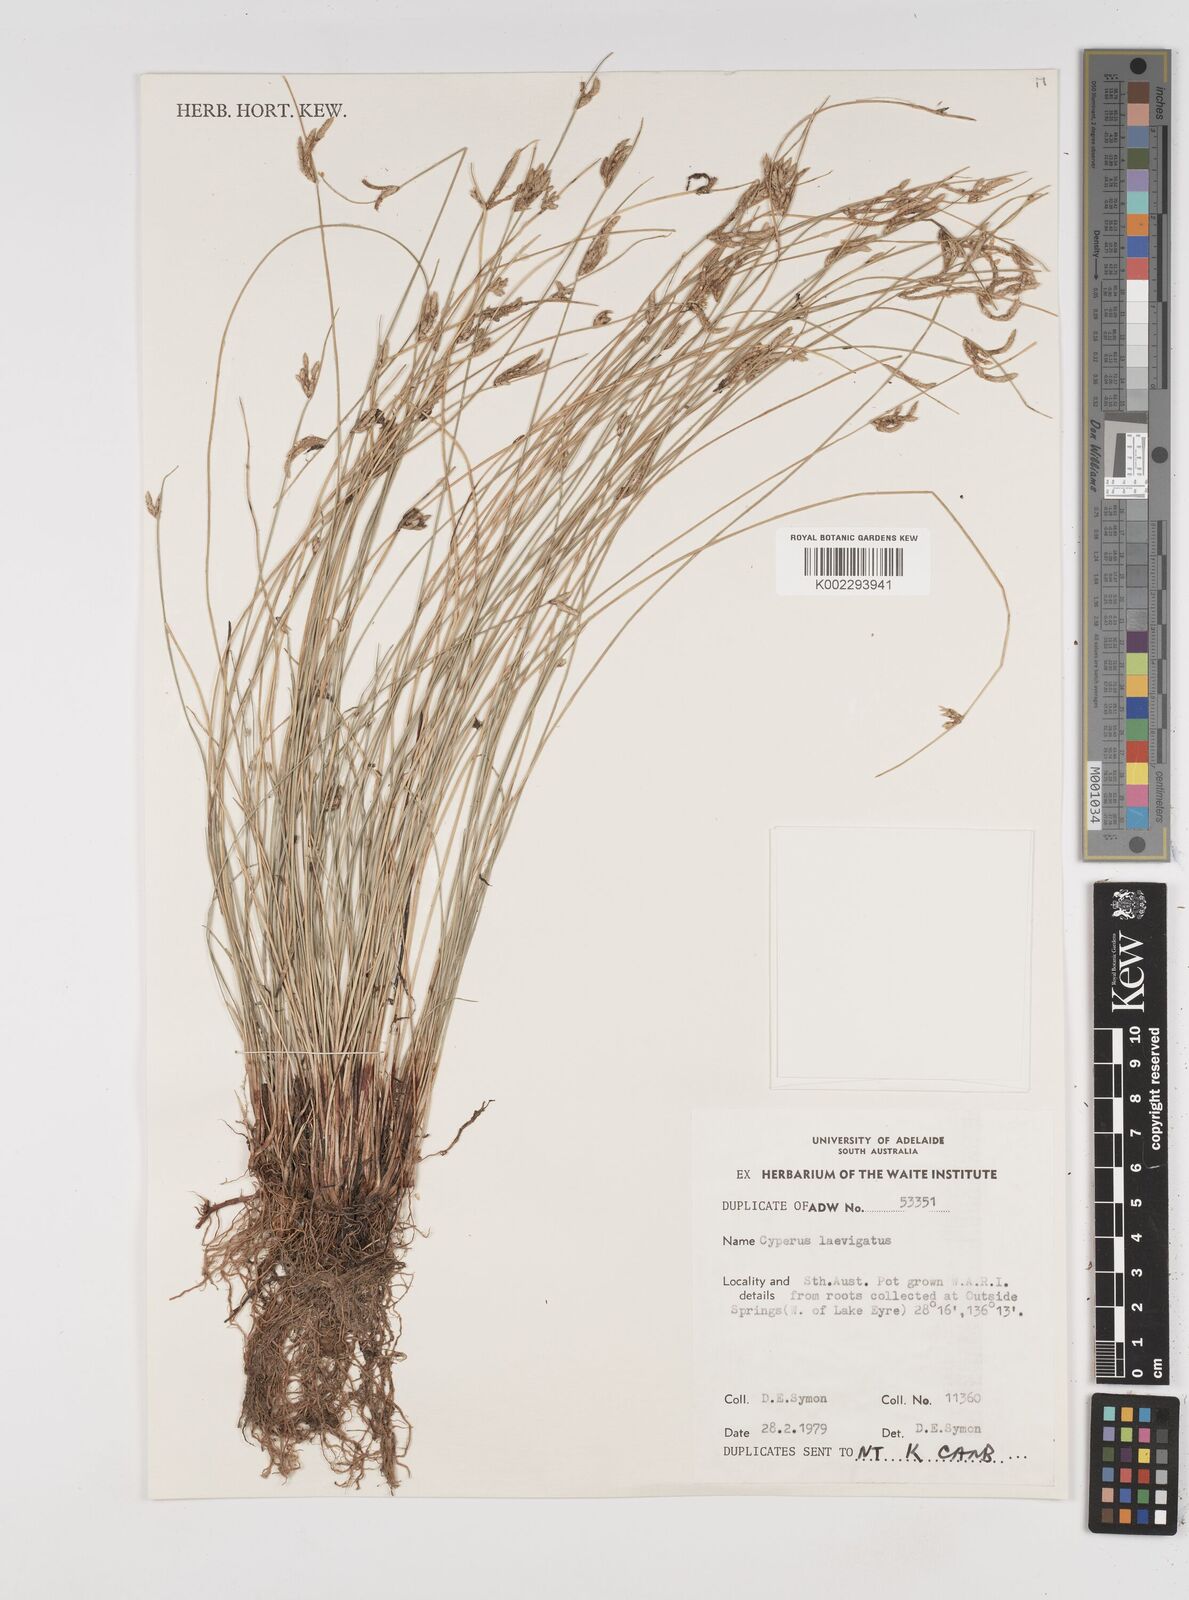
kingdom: Plantae
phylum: Tracheophyta
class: Liliopsida
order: Poales
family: Cyperaceae
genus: Cyperus
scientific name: Cyperus laevigatus
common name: Smooth flat sedge
